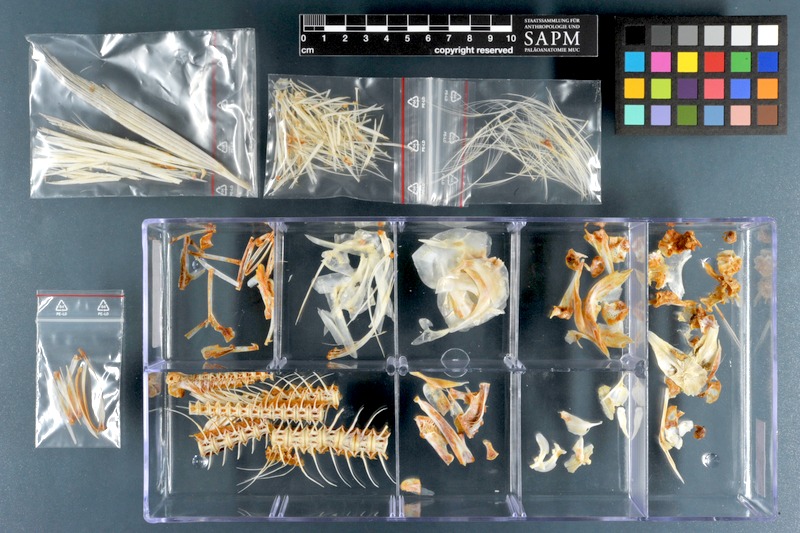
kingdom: Animalia
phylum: Chordata
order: Gonorynchiformes
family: Chanidae
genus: Chanos
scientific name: Chanos chanos
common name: Milkfish
